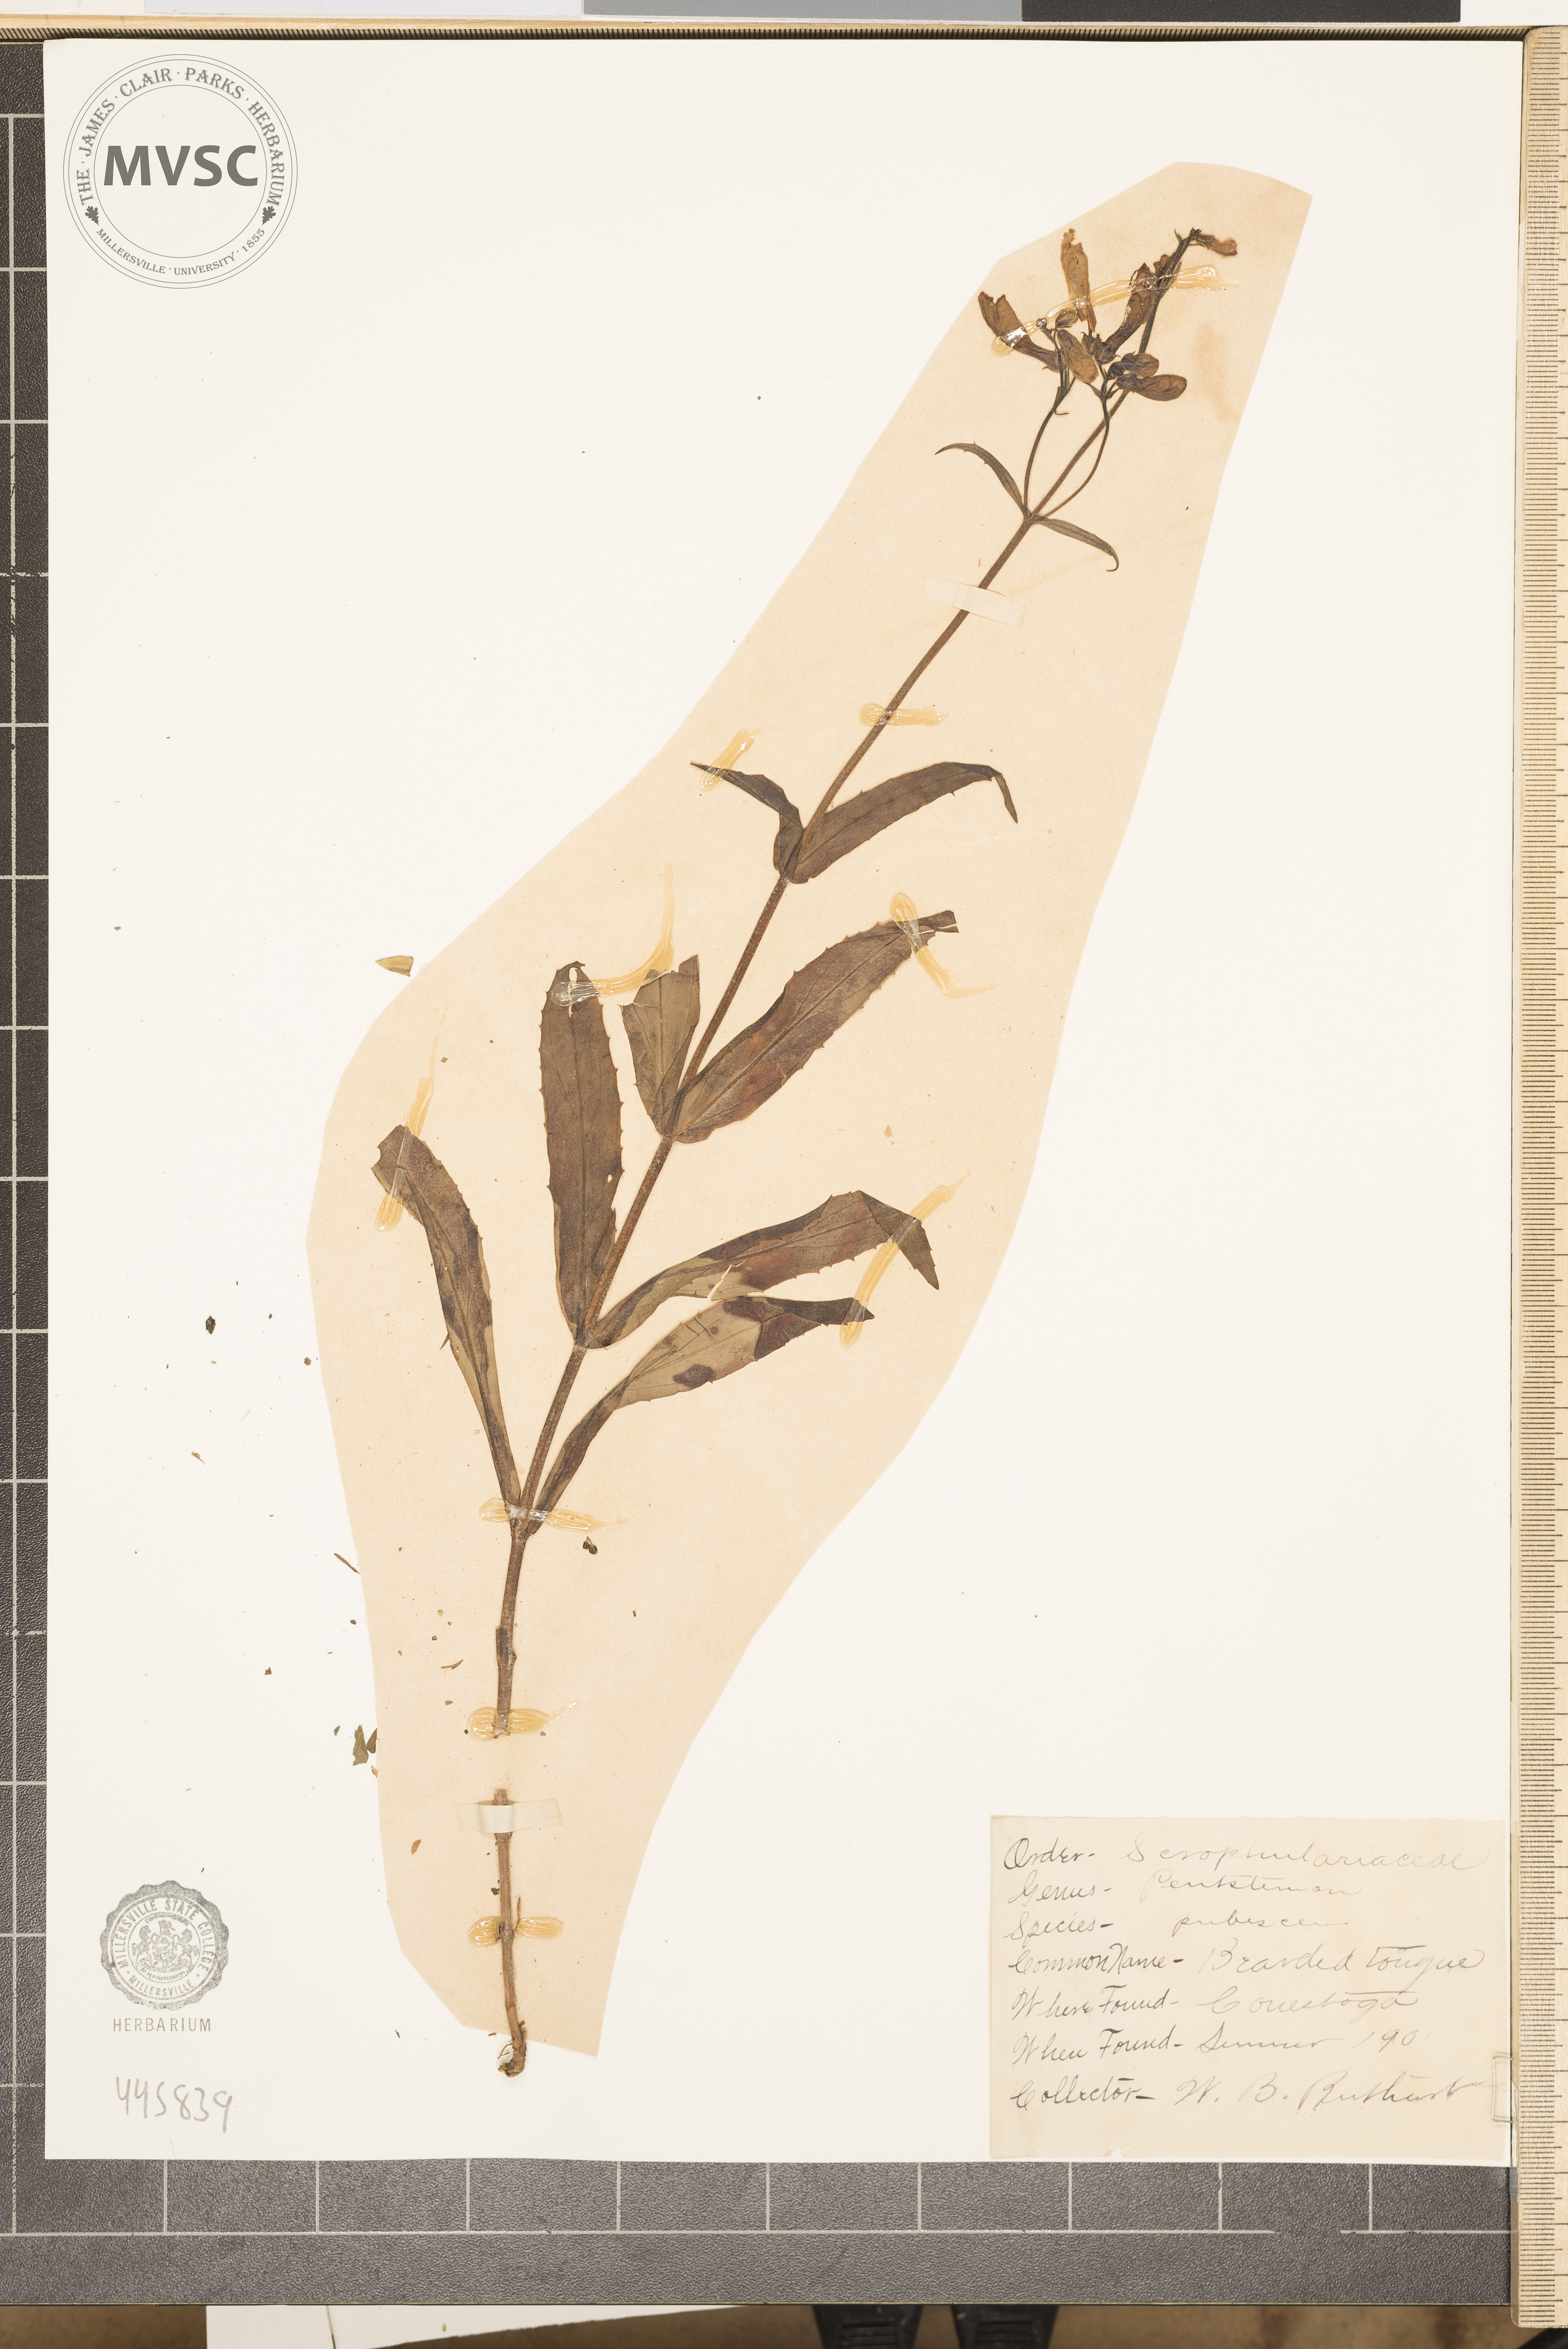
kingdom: Plantae
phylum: Tracheophyta
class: Magnoliopsida
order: Lamiales
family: Plantaginaceae
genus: Penstemon
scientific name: Penstemon pallidus
